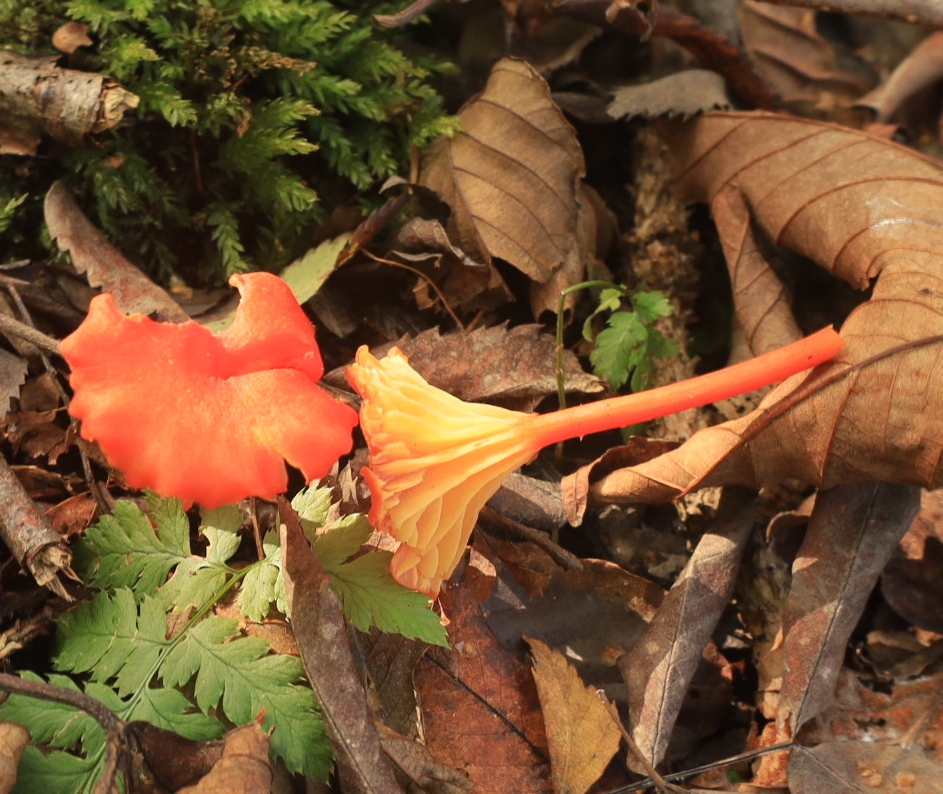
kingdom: Fungi
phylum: Basidiomycota
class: Agaricomycetes
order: Agaricales
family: Hygrophoraceae
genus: Hygrocybe
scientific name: Hygrocybe cantharellus
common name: kantarel-vokshat
